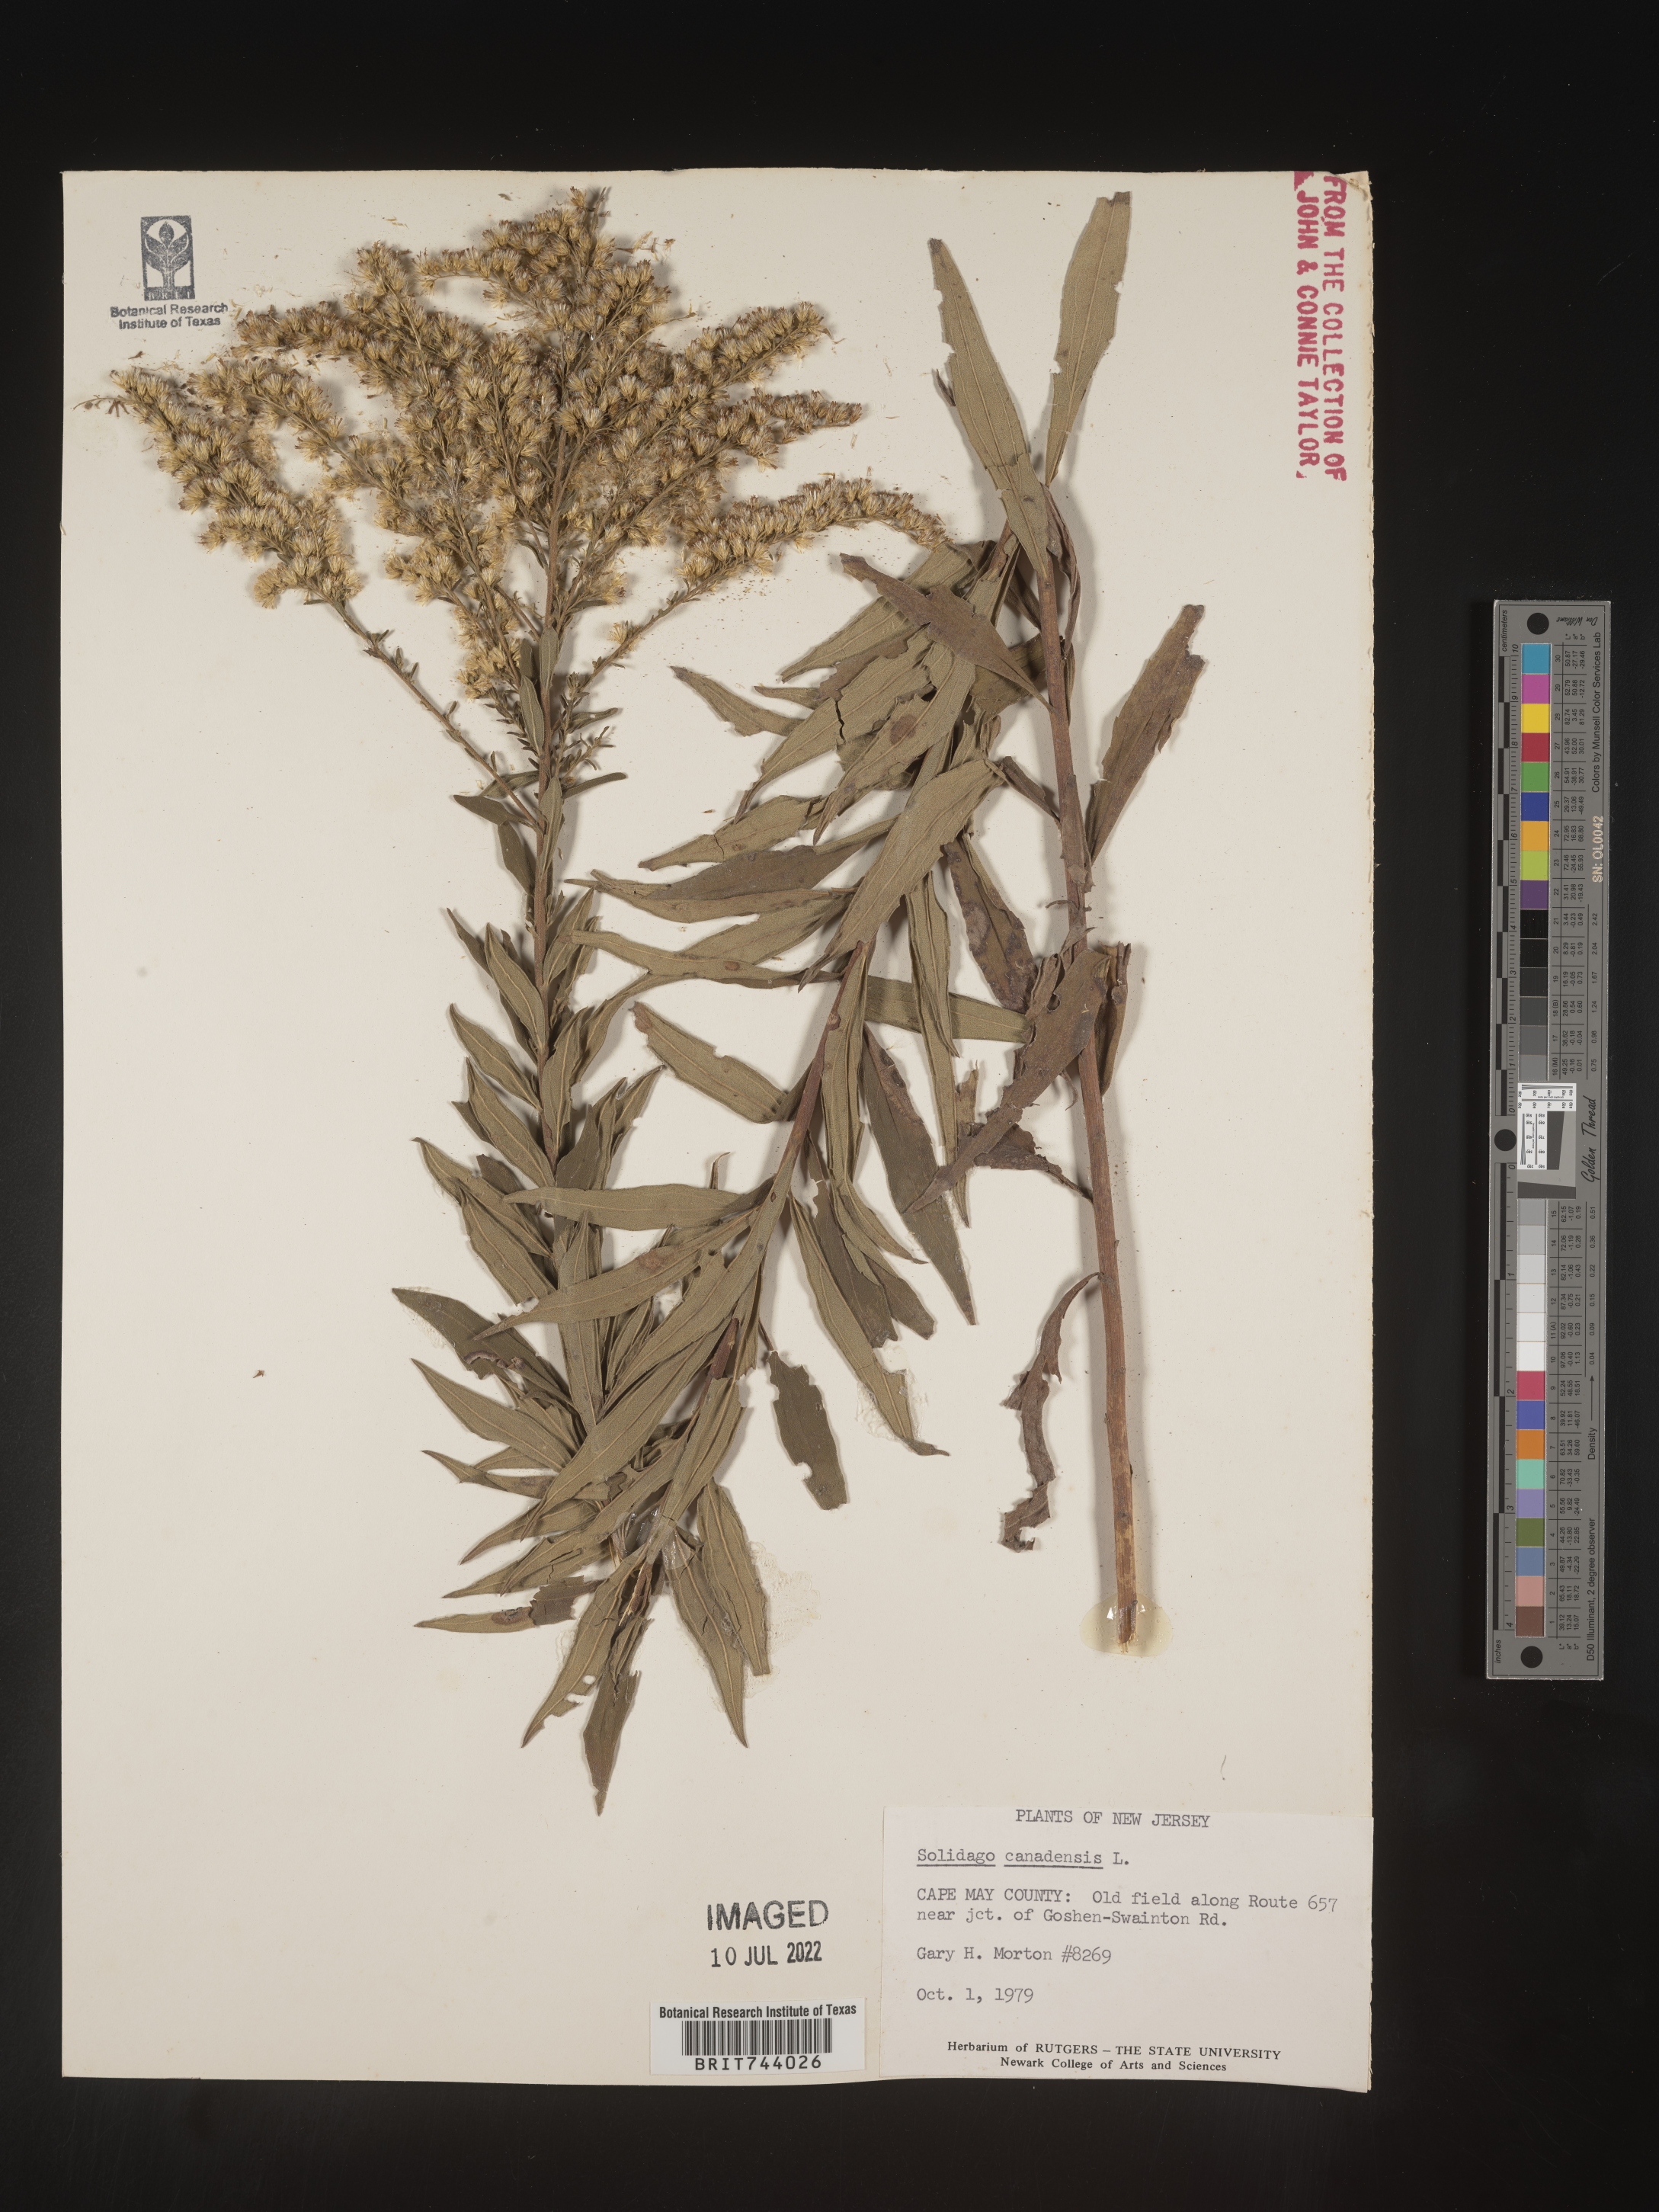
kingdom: Plantae
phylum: Tracheophyta
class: Magnoliopsida
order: Asterales
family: Asteraceae
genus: Solidago
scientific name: Solidago canadensis
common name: Canada goldenrod
